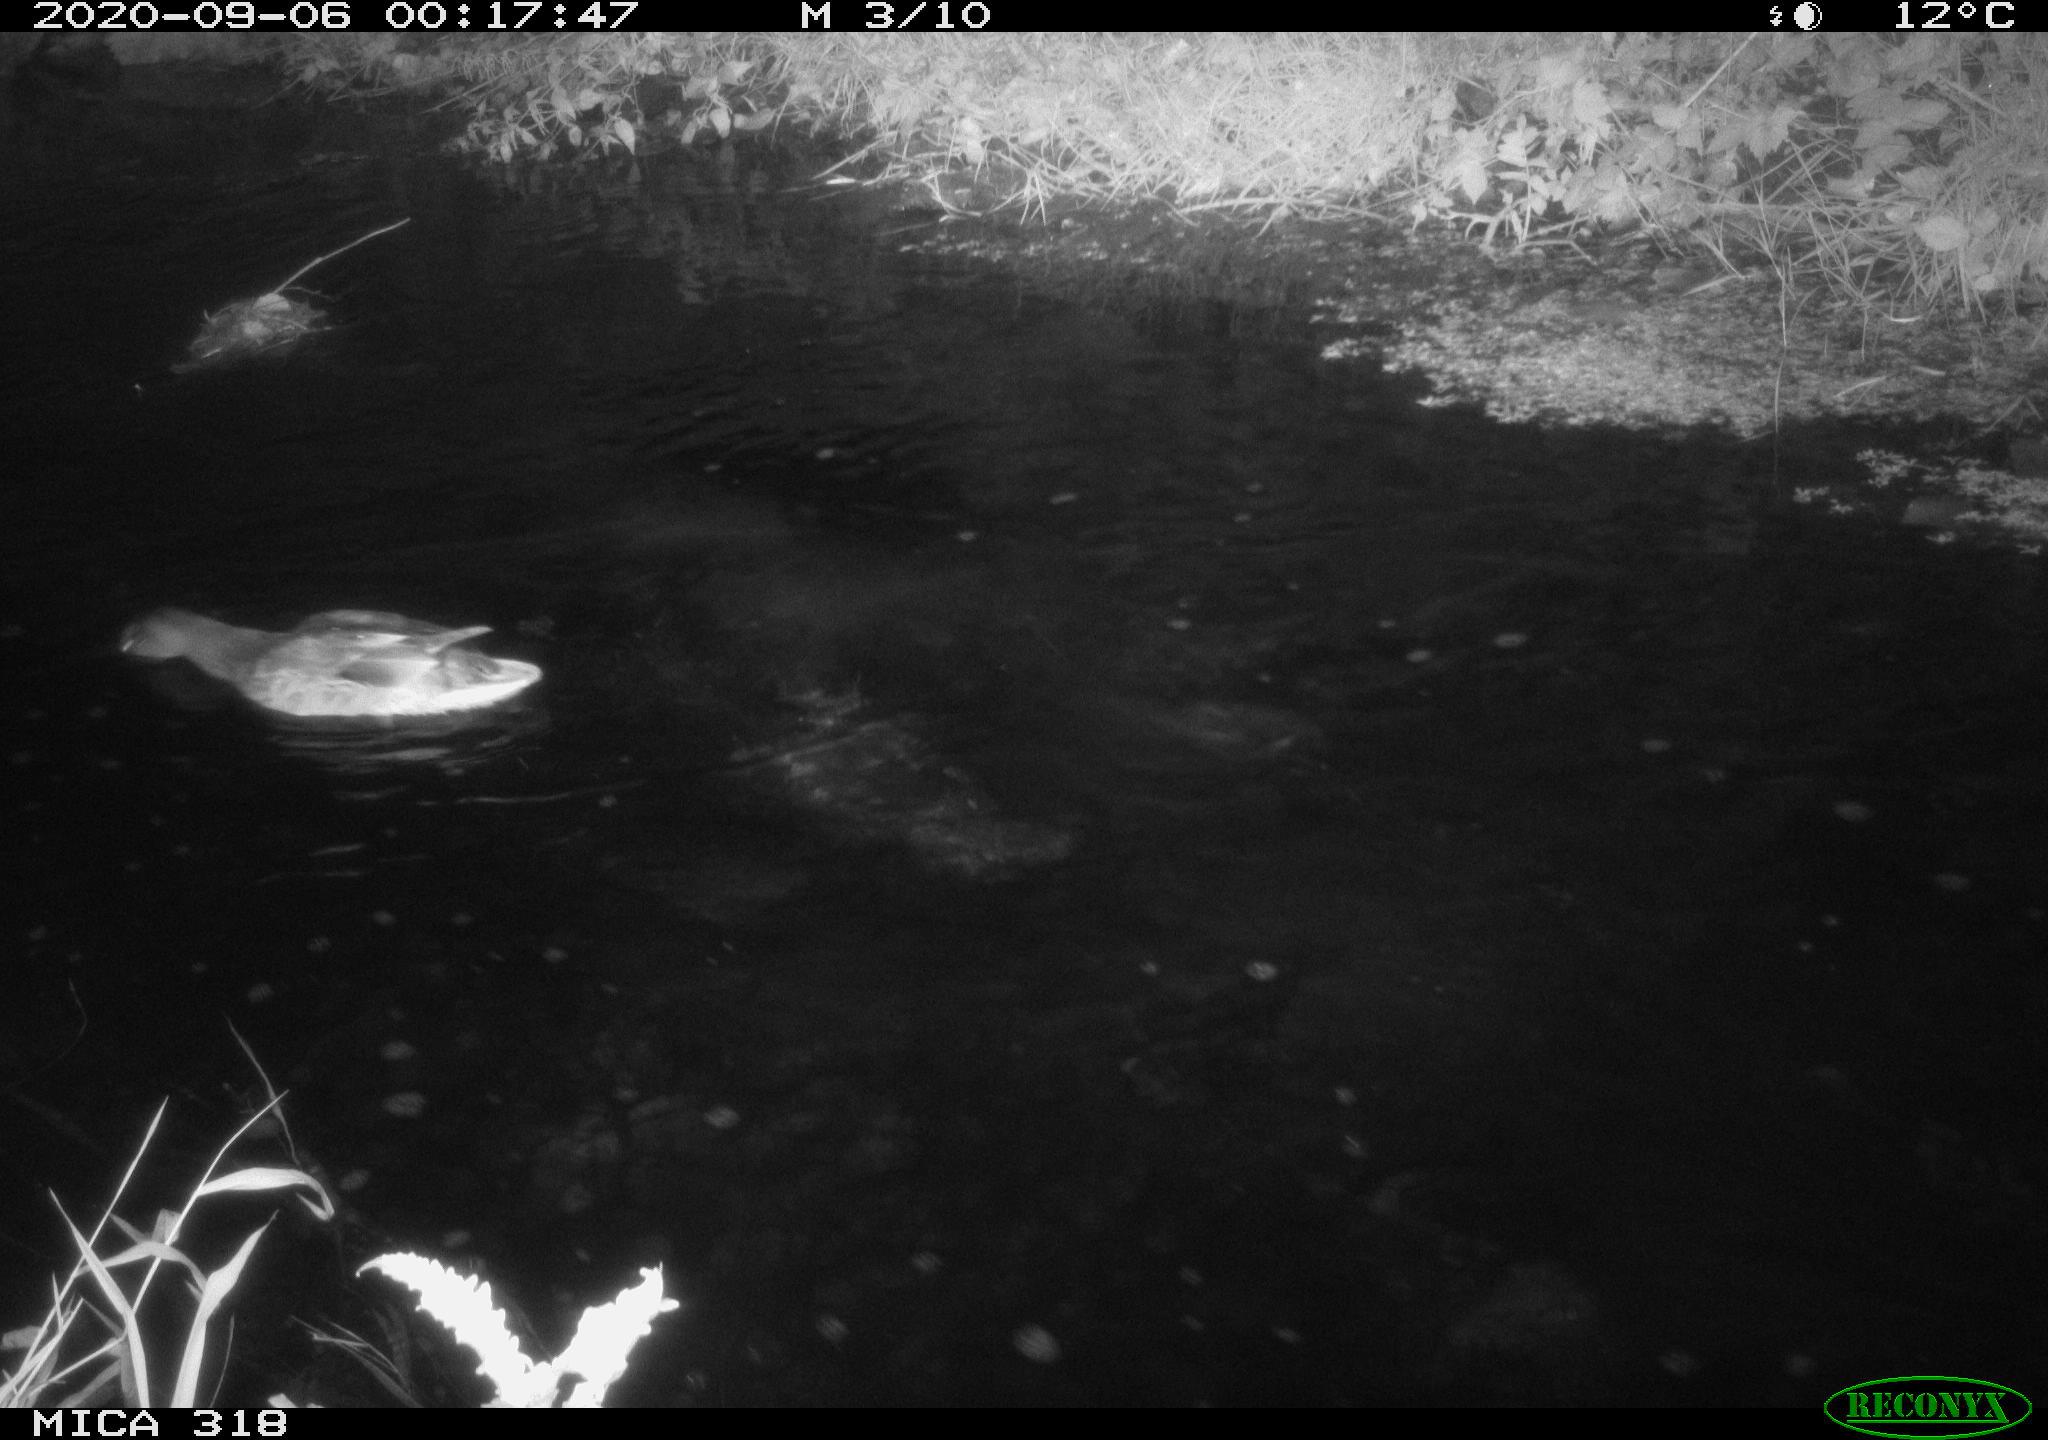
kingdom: Animalia
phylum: Chordata
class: Aves
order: Anseriformes
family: Anatidae
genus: Mareca
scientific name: Mareca strepera
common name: Gadwall
